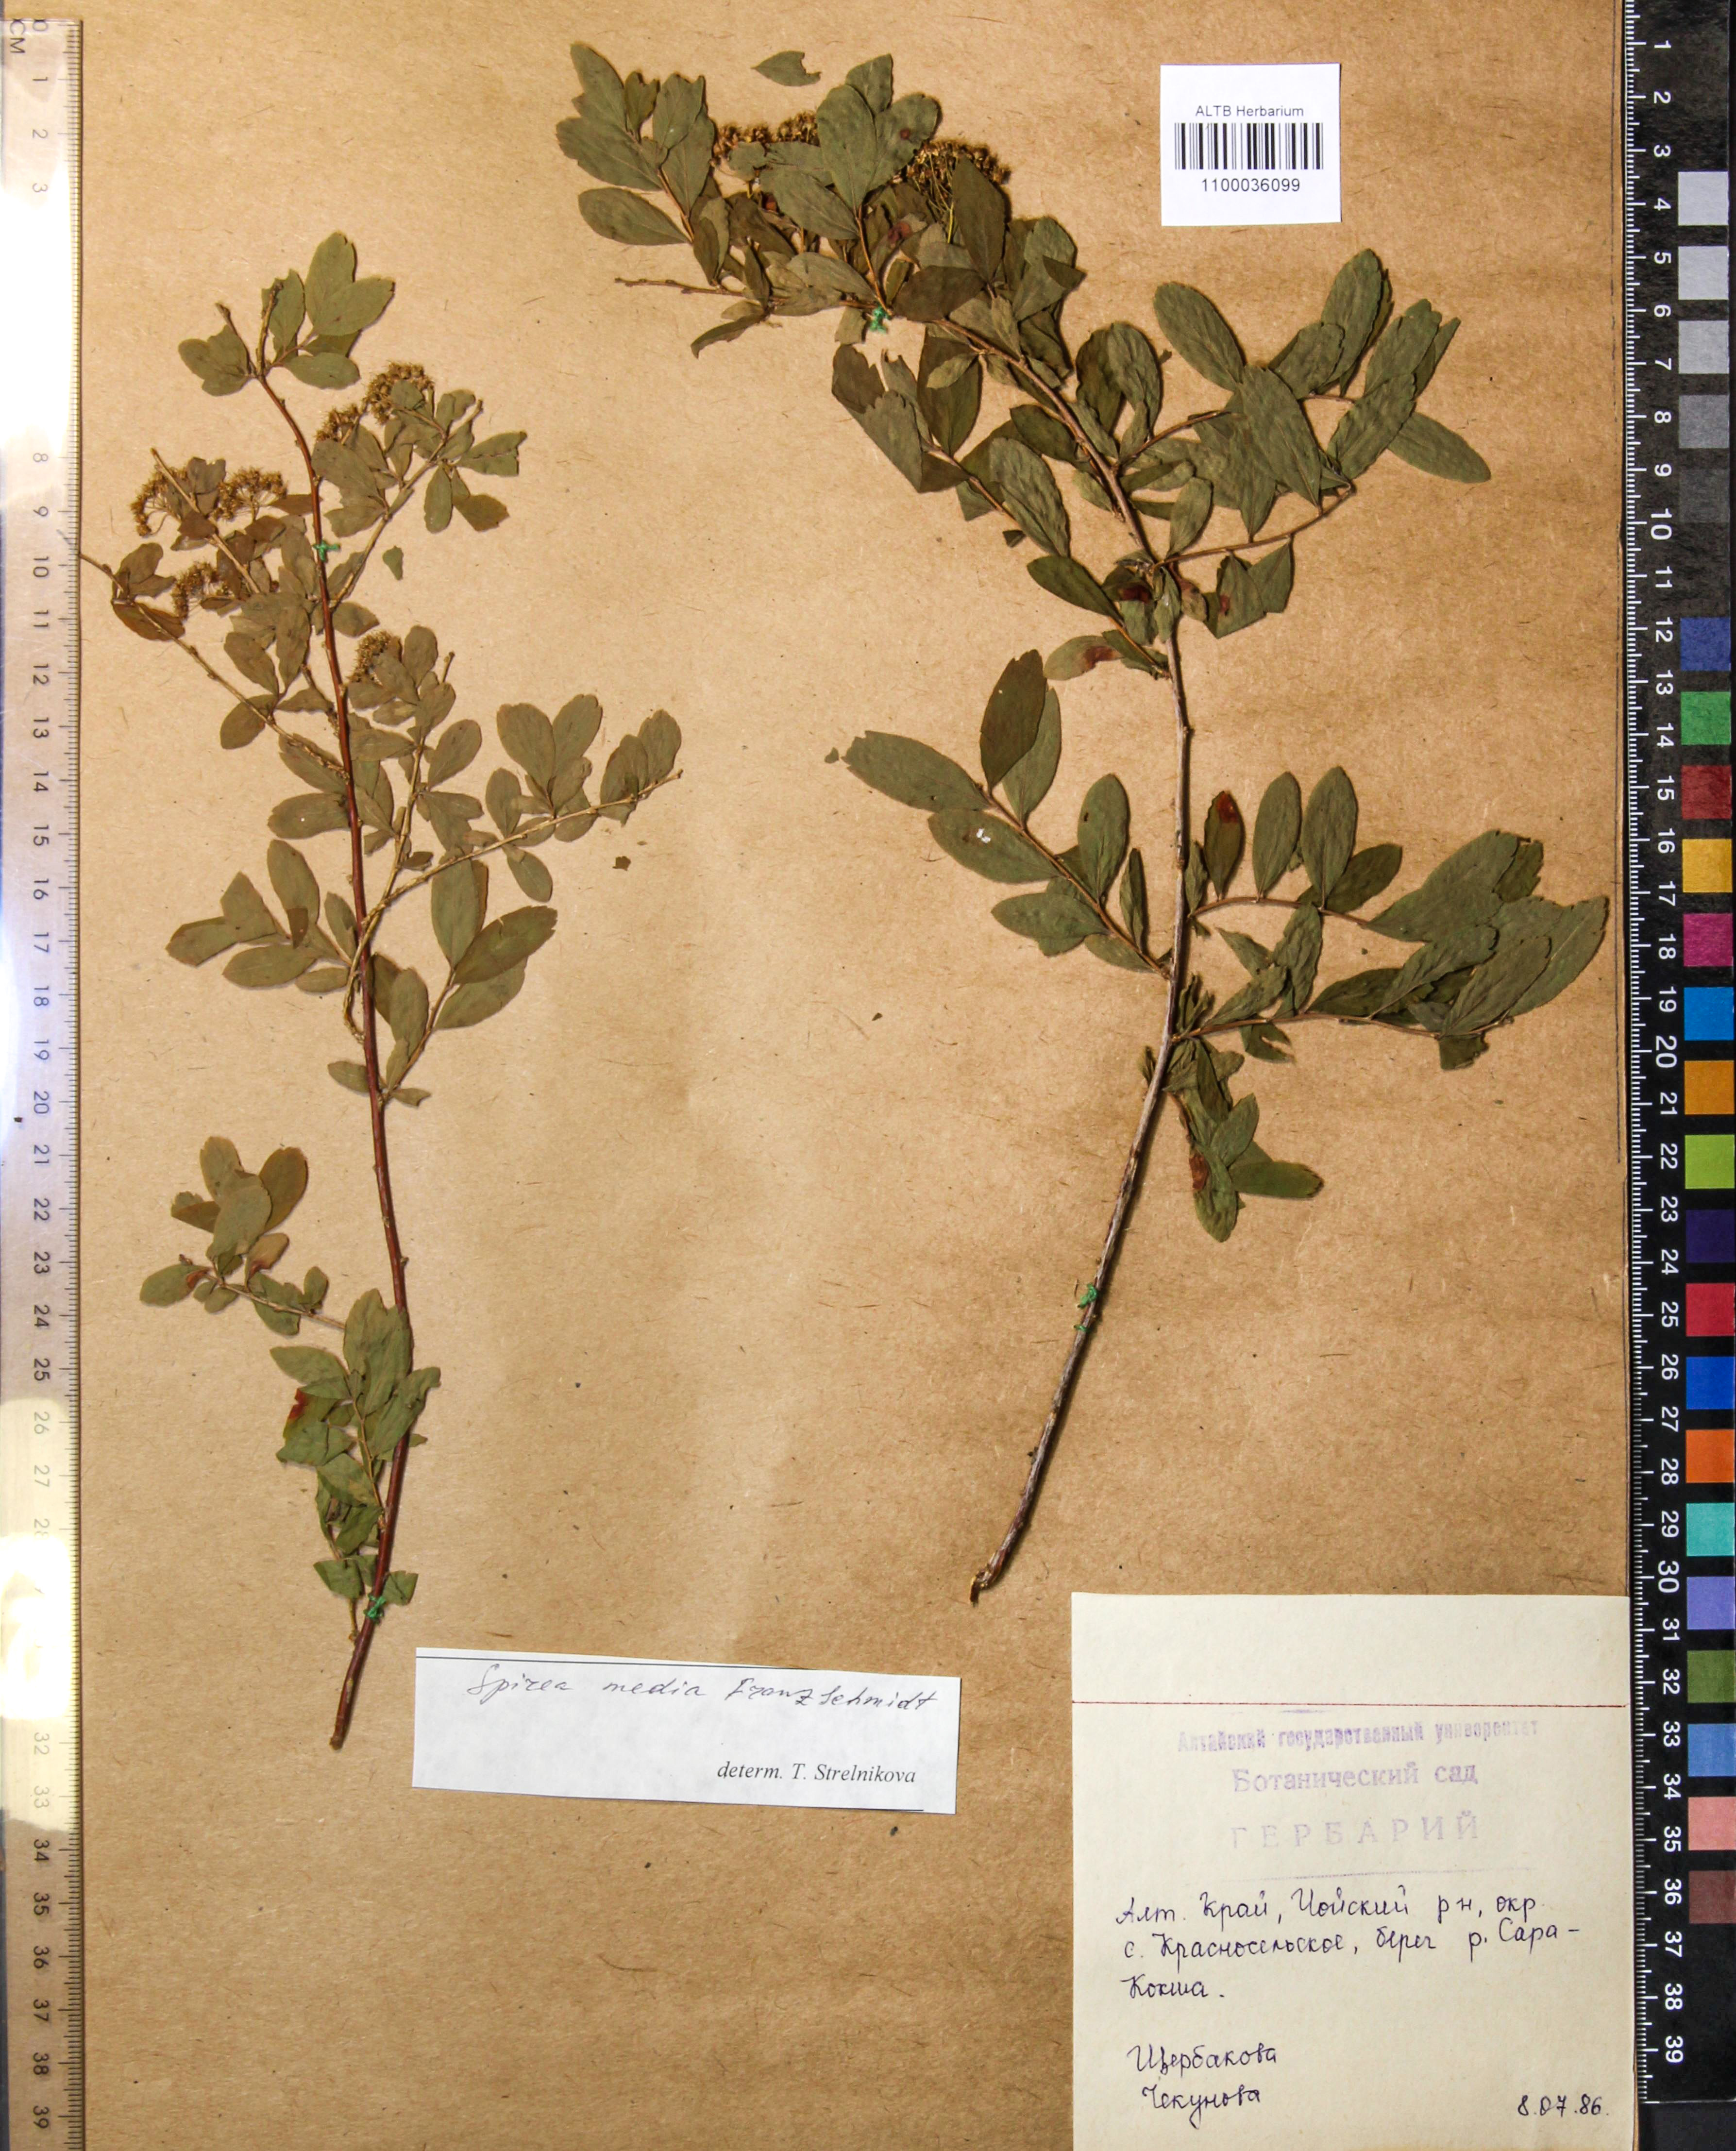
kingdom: Plantae
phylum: Tracheophyta
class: Magnoliopsida
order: Rosales
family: Rosaceae
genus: Spiraea
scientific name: Spiraea media
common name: Russian spiraea
